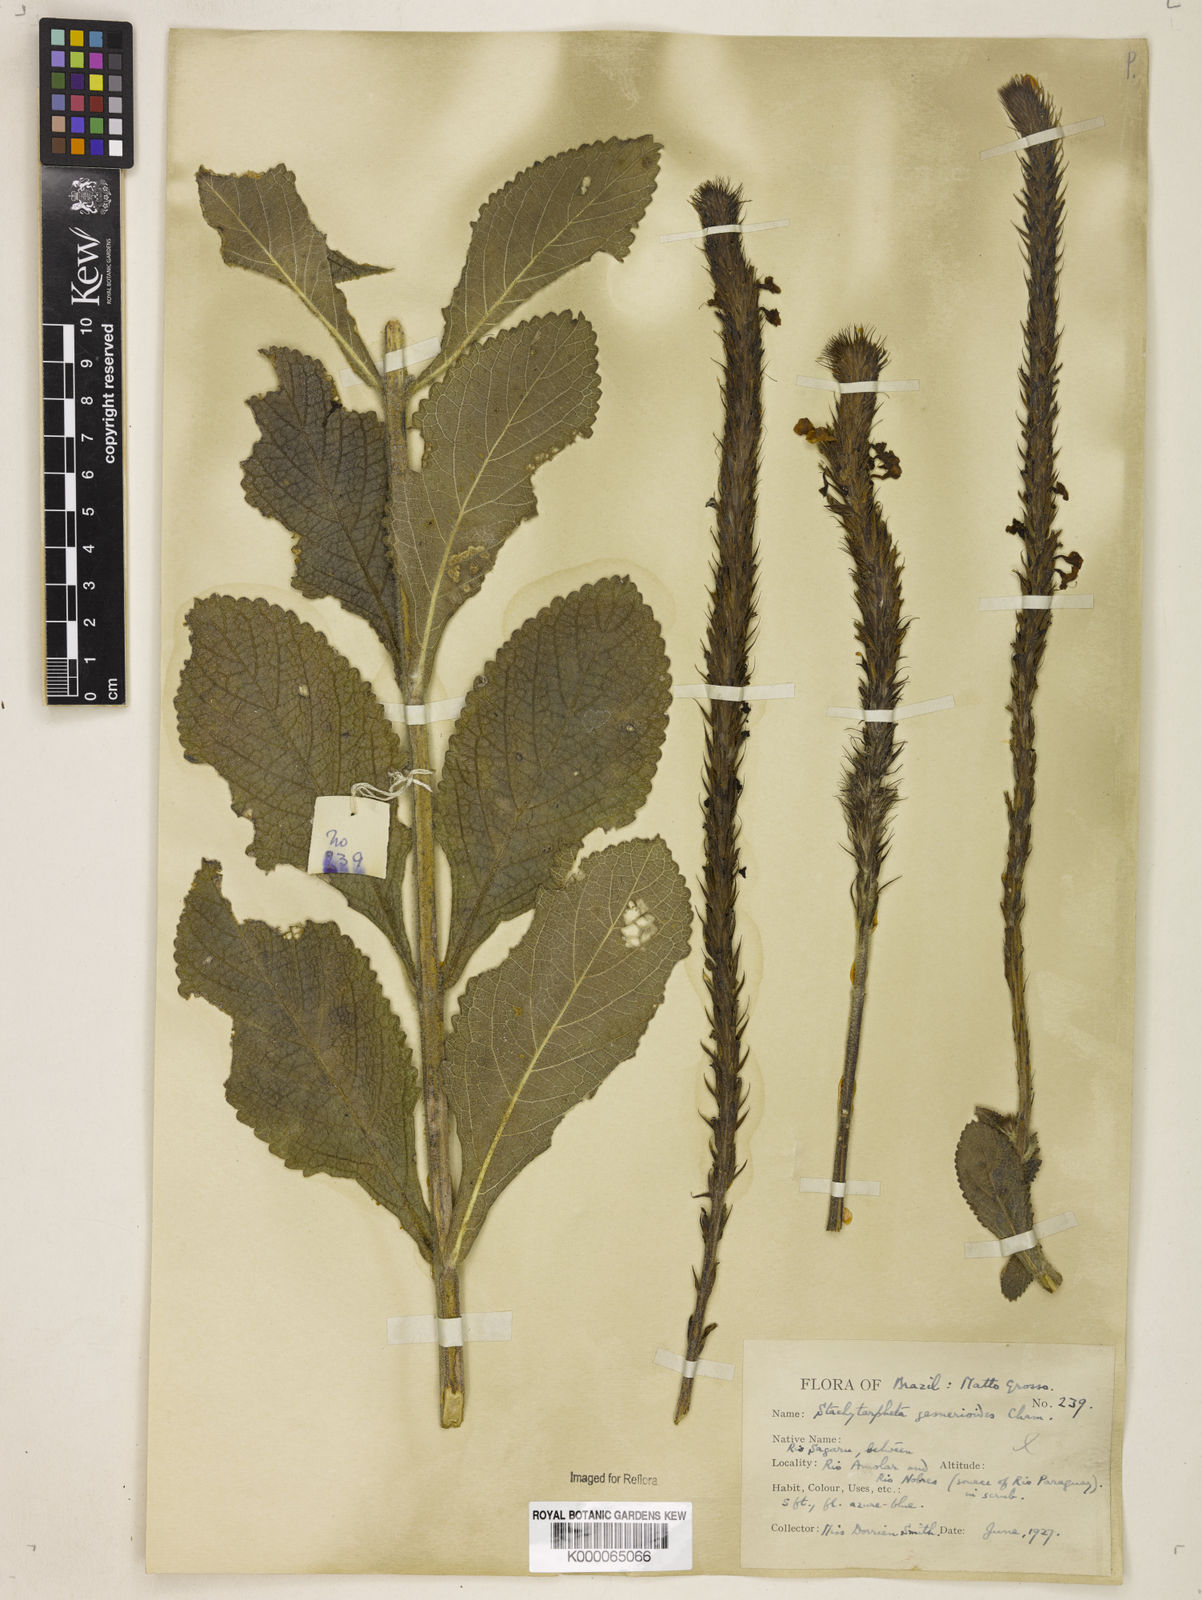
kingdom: Plantae
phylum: Tracheophyta
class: Magnoliopsida
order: Lamiales
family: Verbenaceae
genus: Stachytarpheta
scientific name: Stachytarpheta gesnerioides
